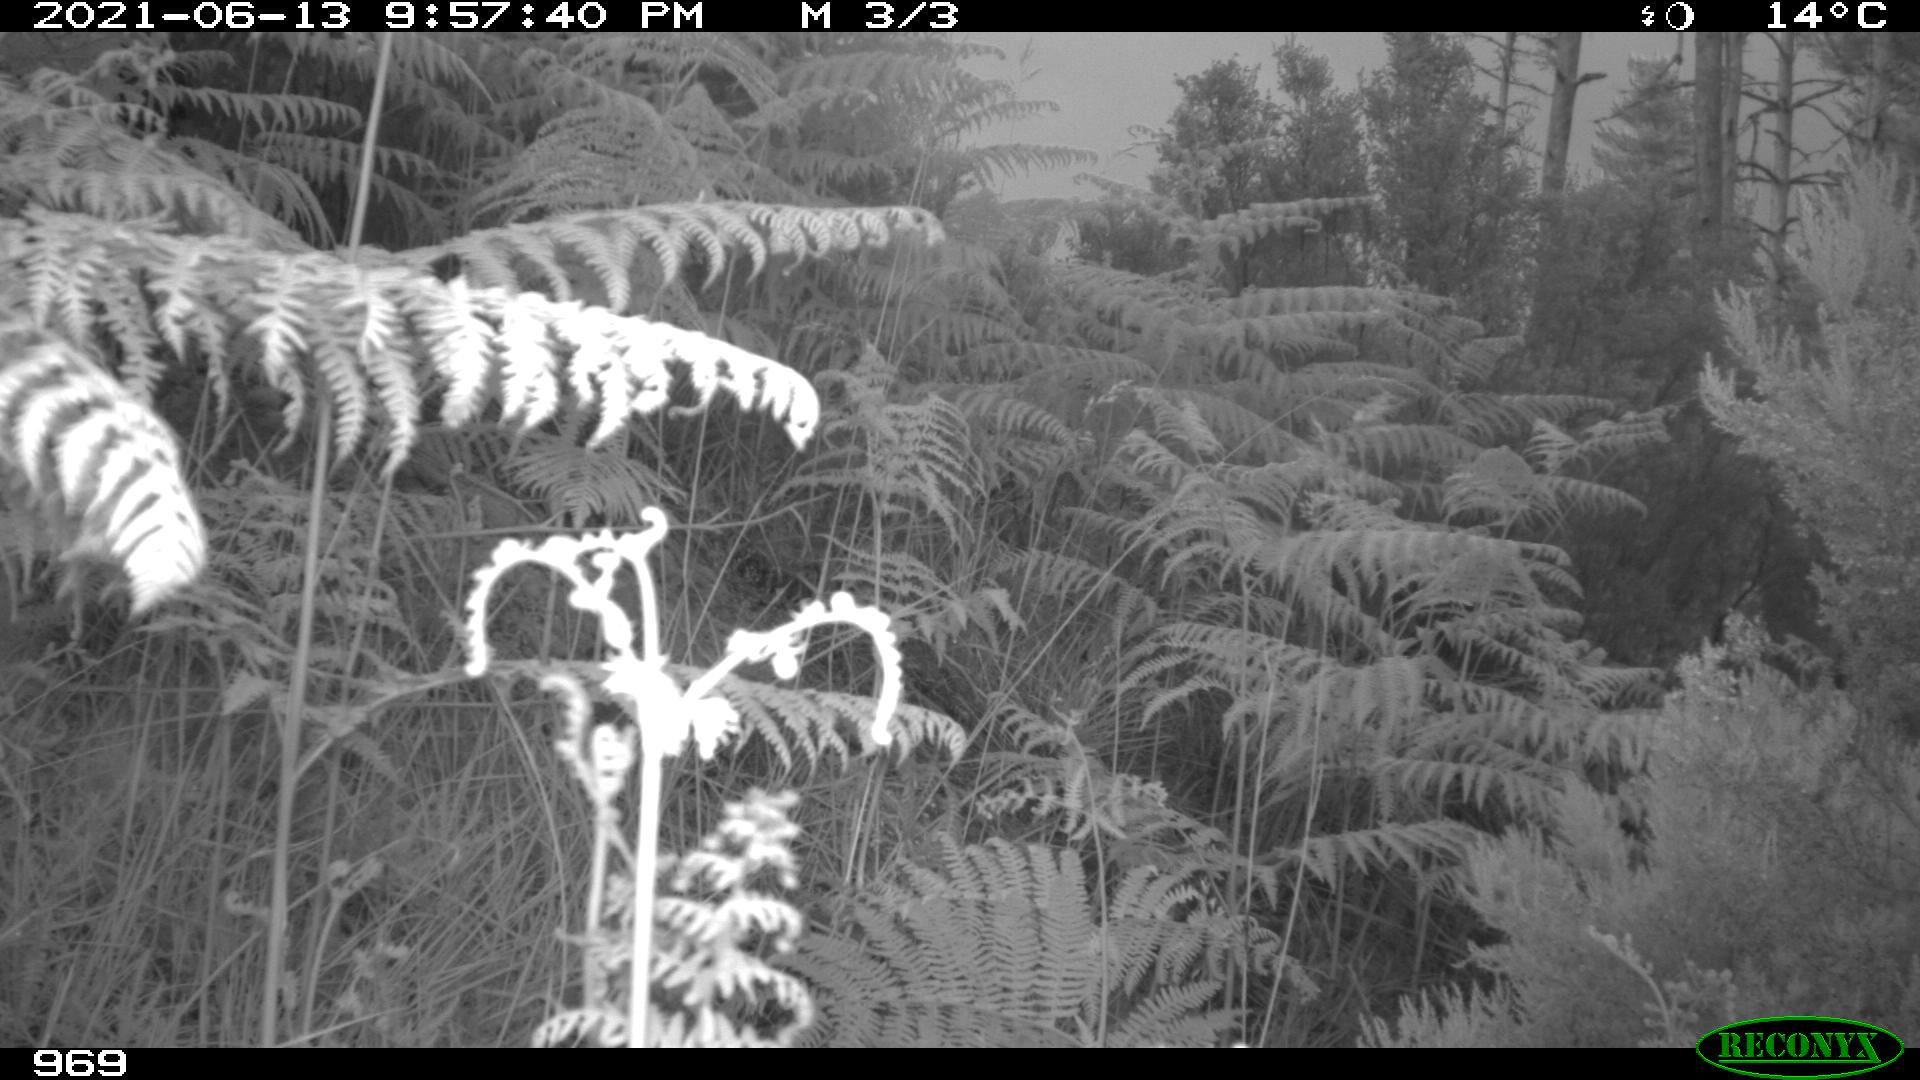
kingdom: Animalia
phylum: Chordata
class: Mammalia
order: Artiodactyla
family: Suidae
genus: Sus
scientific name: Sus scrofa
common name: Wild boar
